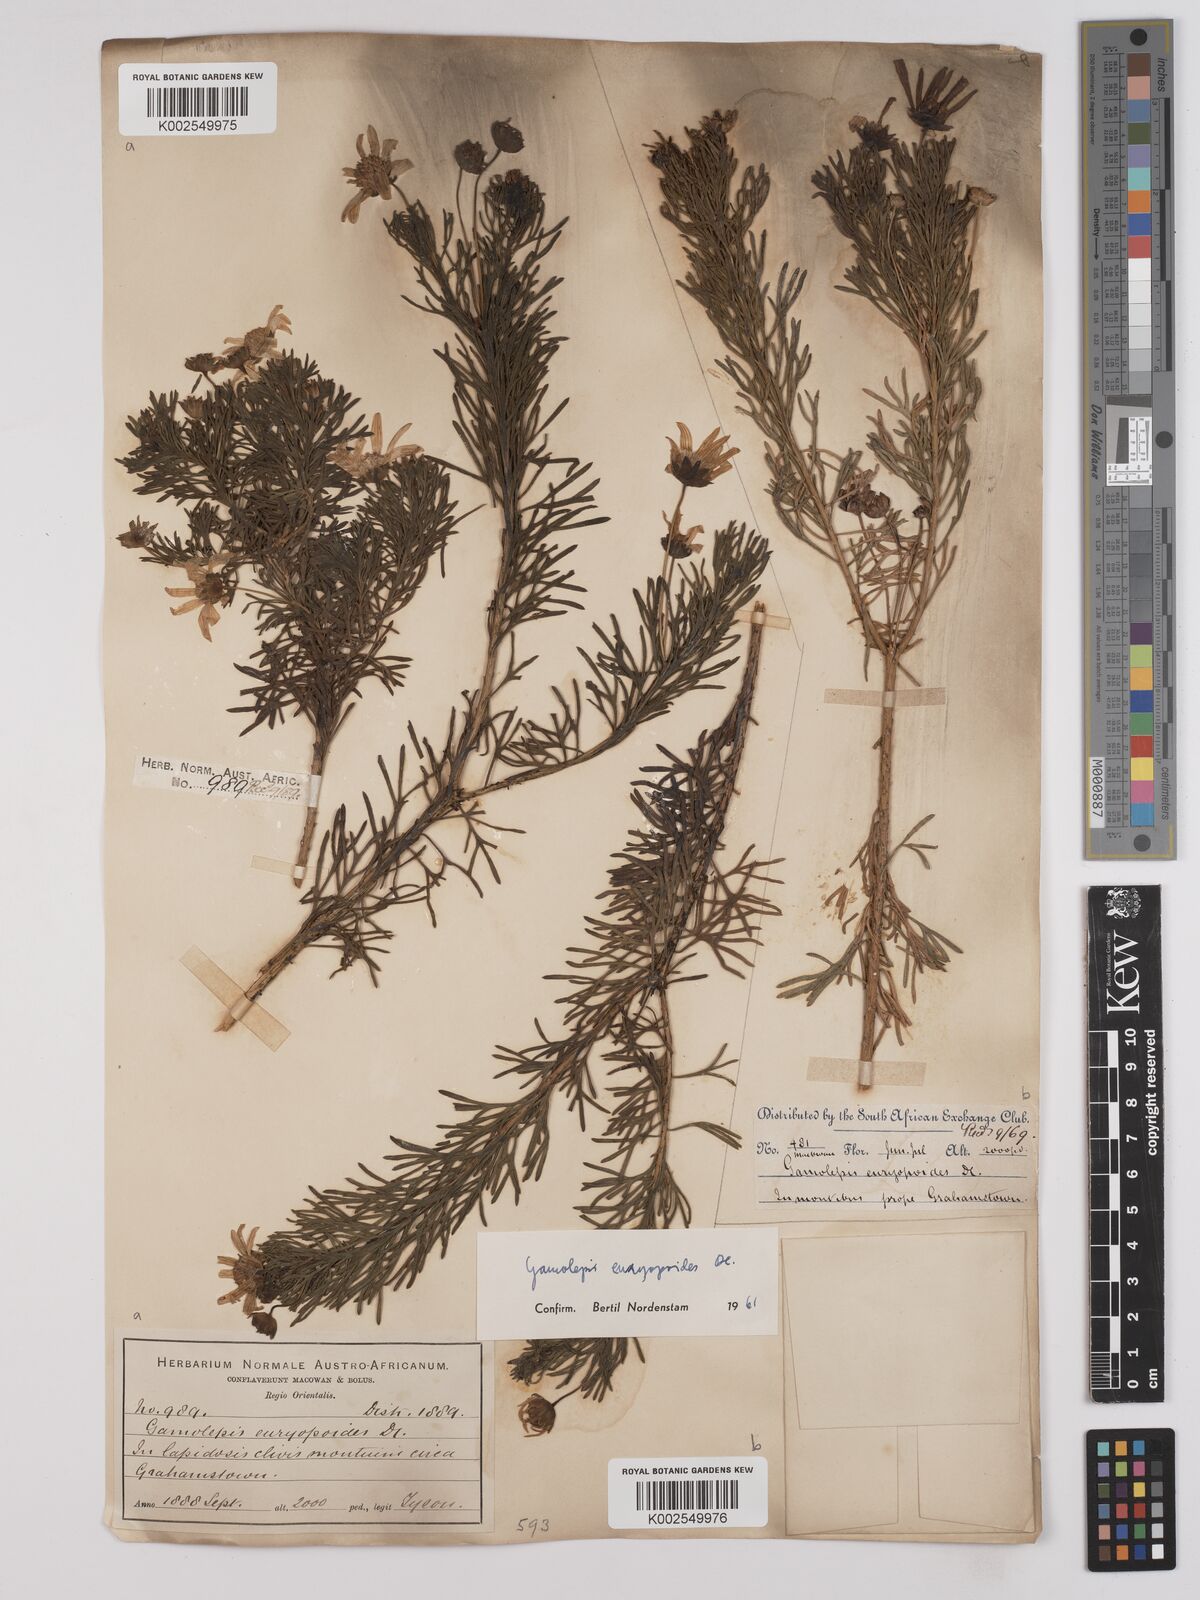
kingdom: Plantae
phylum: Tracheophyta
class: Magnoliopsida
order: Asterales
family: Asteraceae
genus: Euryops
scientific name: Euryops euryopoides
